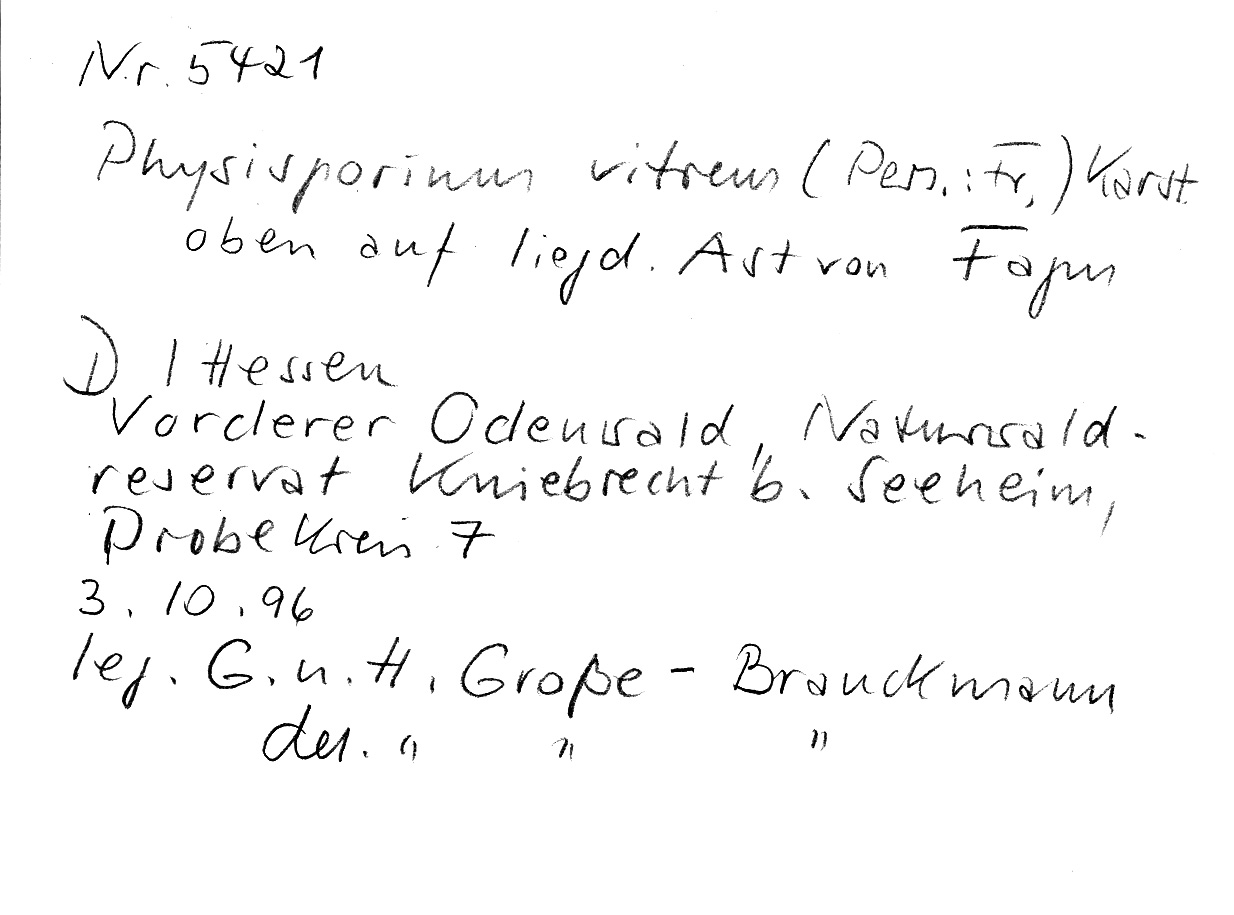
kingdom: Plantae
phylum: Tracheophyta
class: Magnoliopsida
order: Fagales
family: Fagaceae
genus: Fagus
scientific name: Fagus sylvatica
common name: Beech
